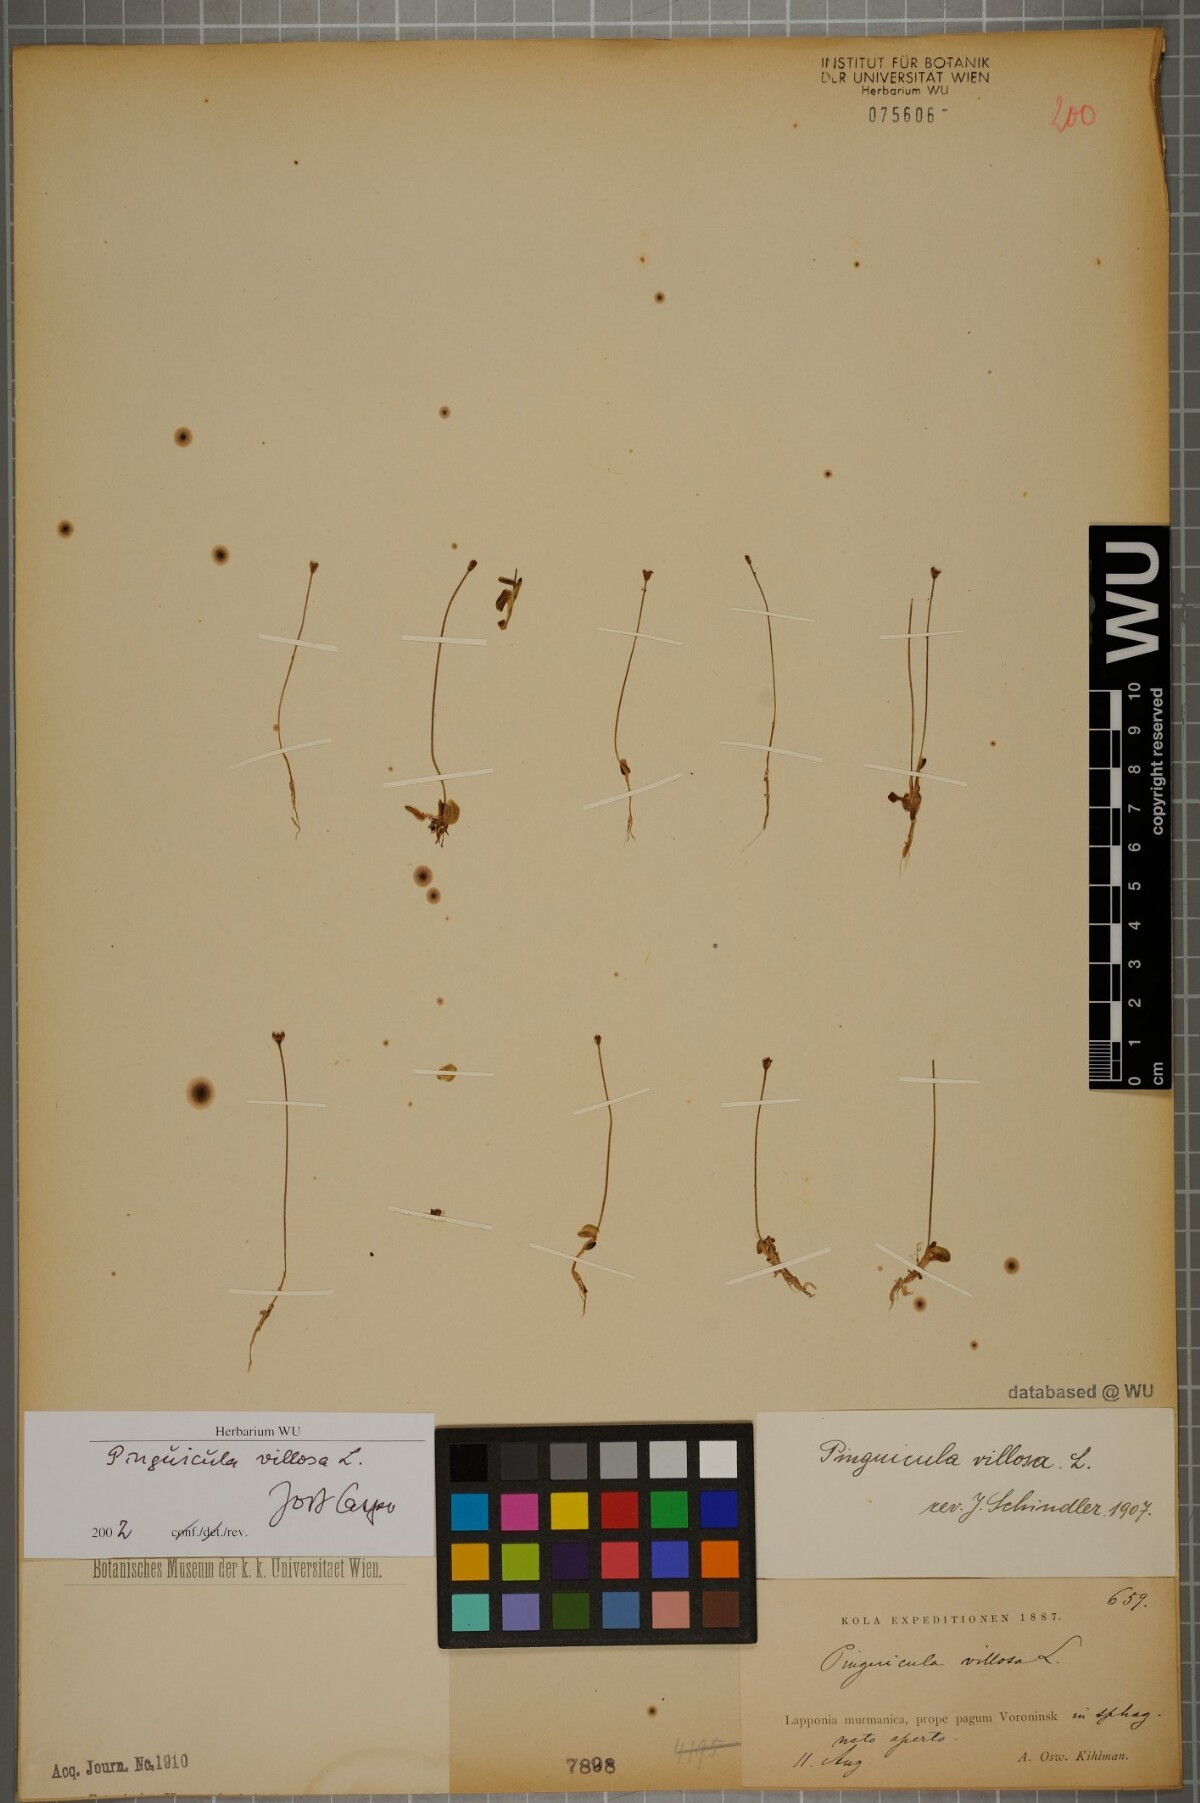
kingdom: Plantae
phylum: Tracheophyta
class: Magnoliopsida
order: Lamiales
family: Lentibulariaceae
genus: Pinguicula
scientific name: Pinguicula villosa
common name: Hairy butterwort
